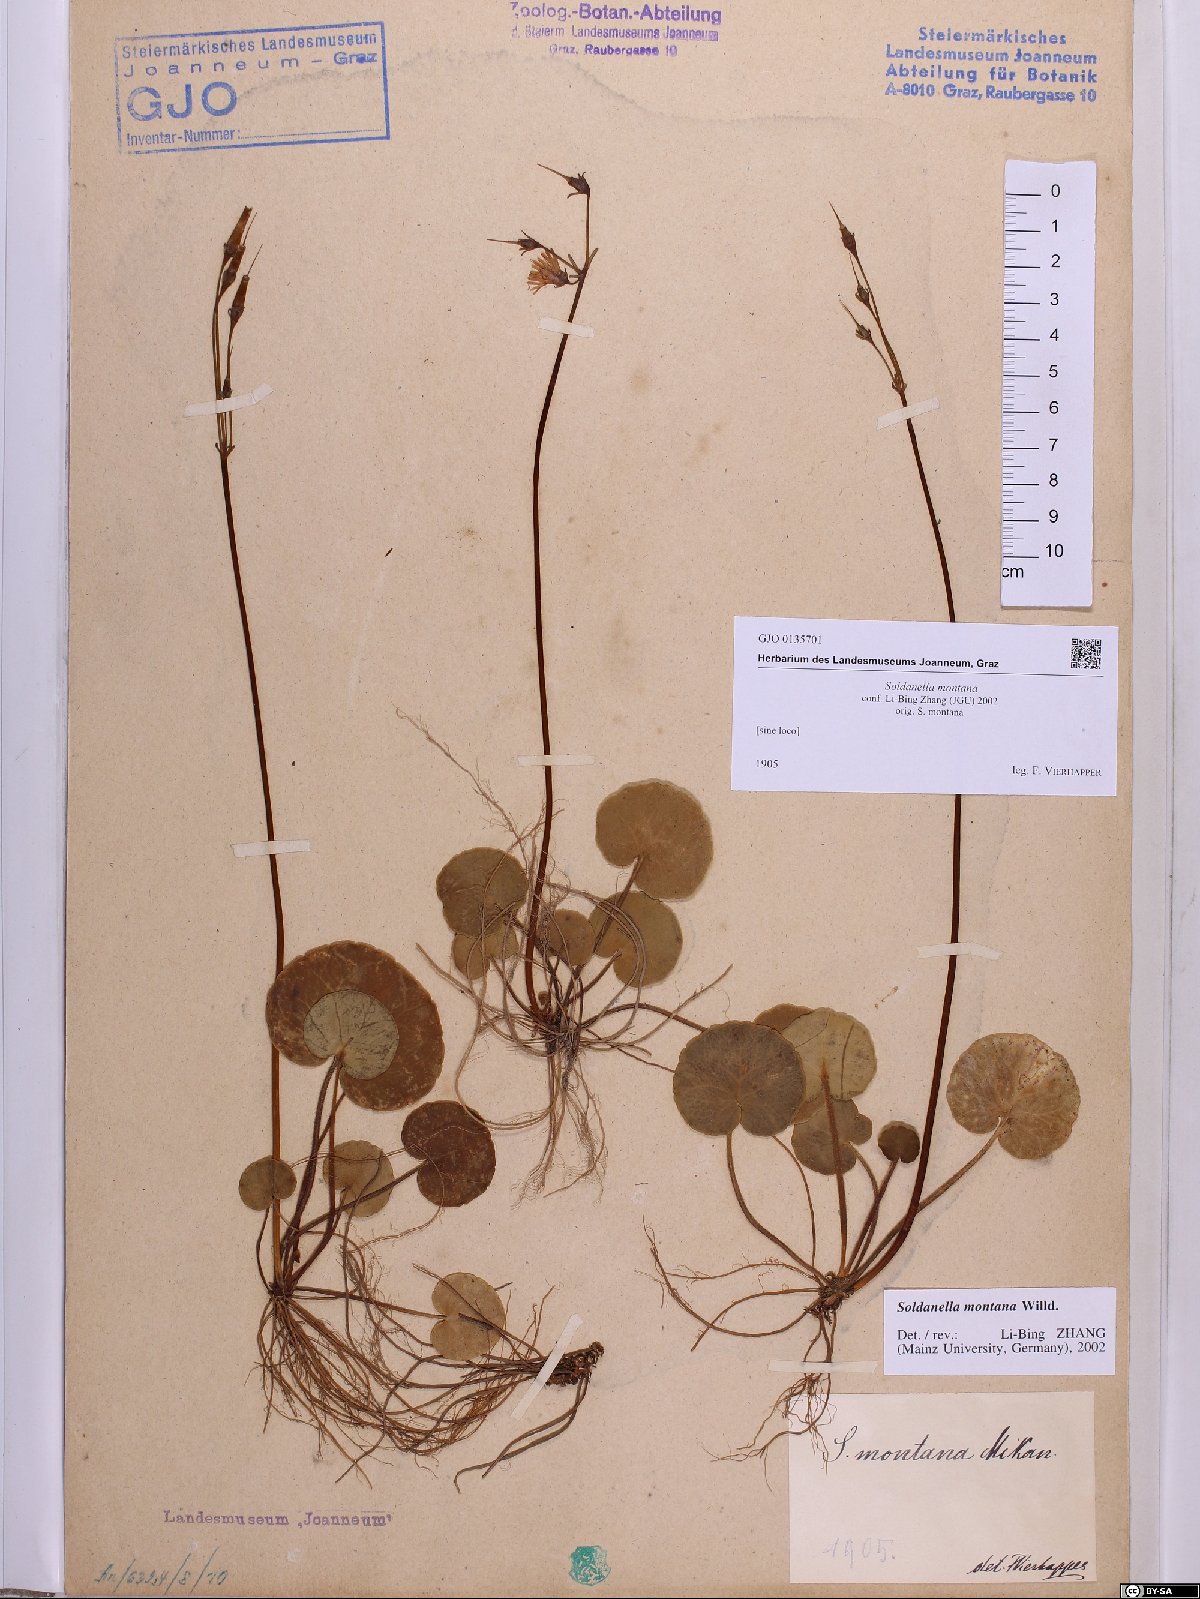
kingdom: Plantae
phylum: Tracheophyta
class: Magnoliopsida
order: Ericales
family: Primulaceae
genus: Soldanella
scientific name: Soldanella montana
